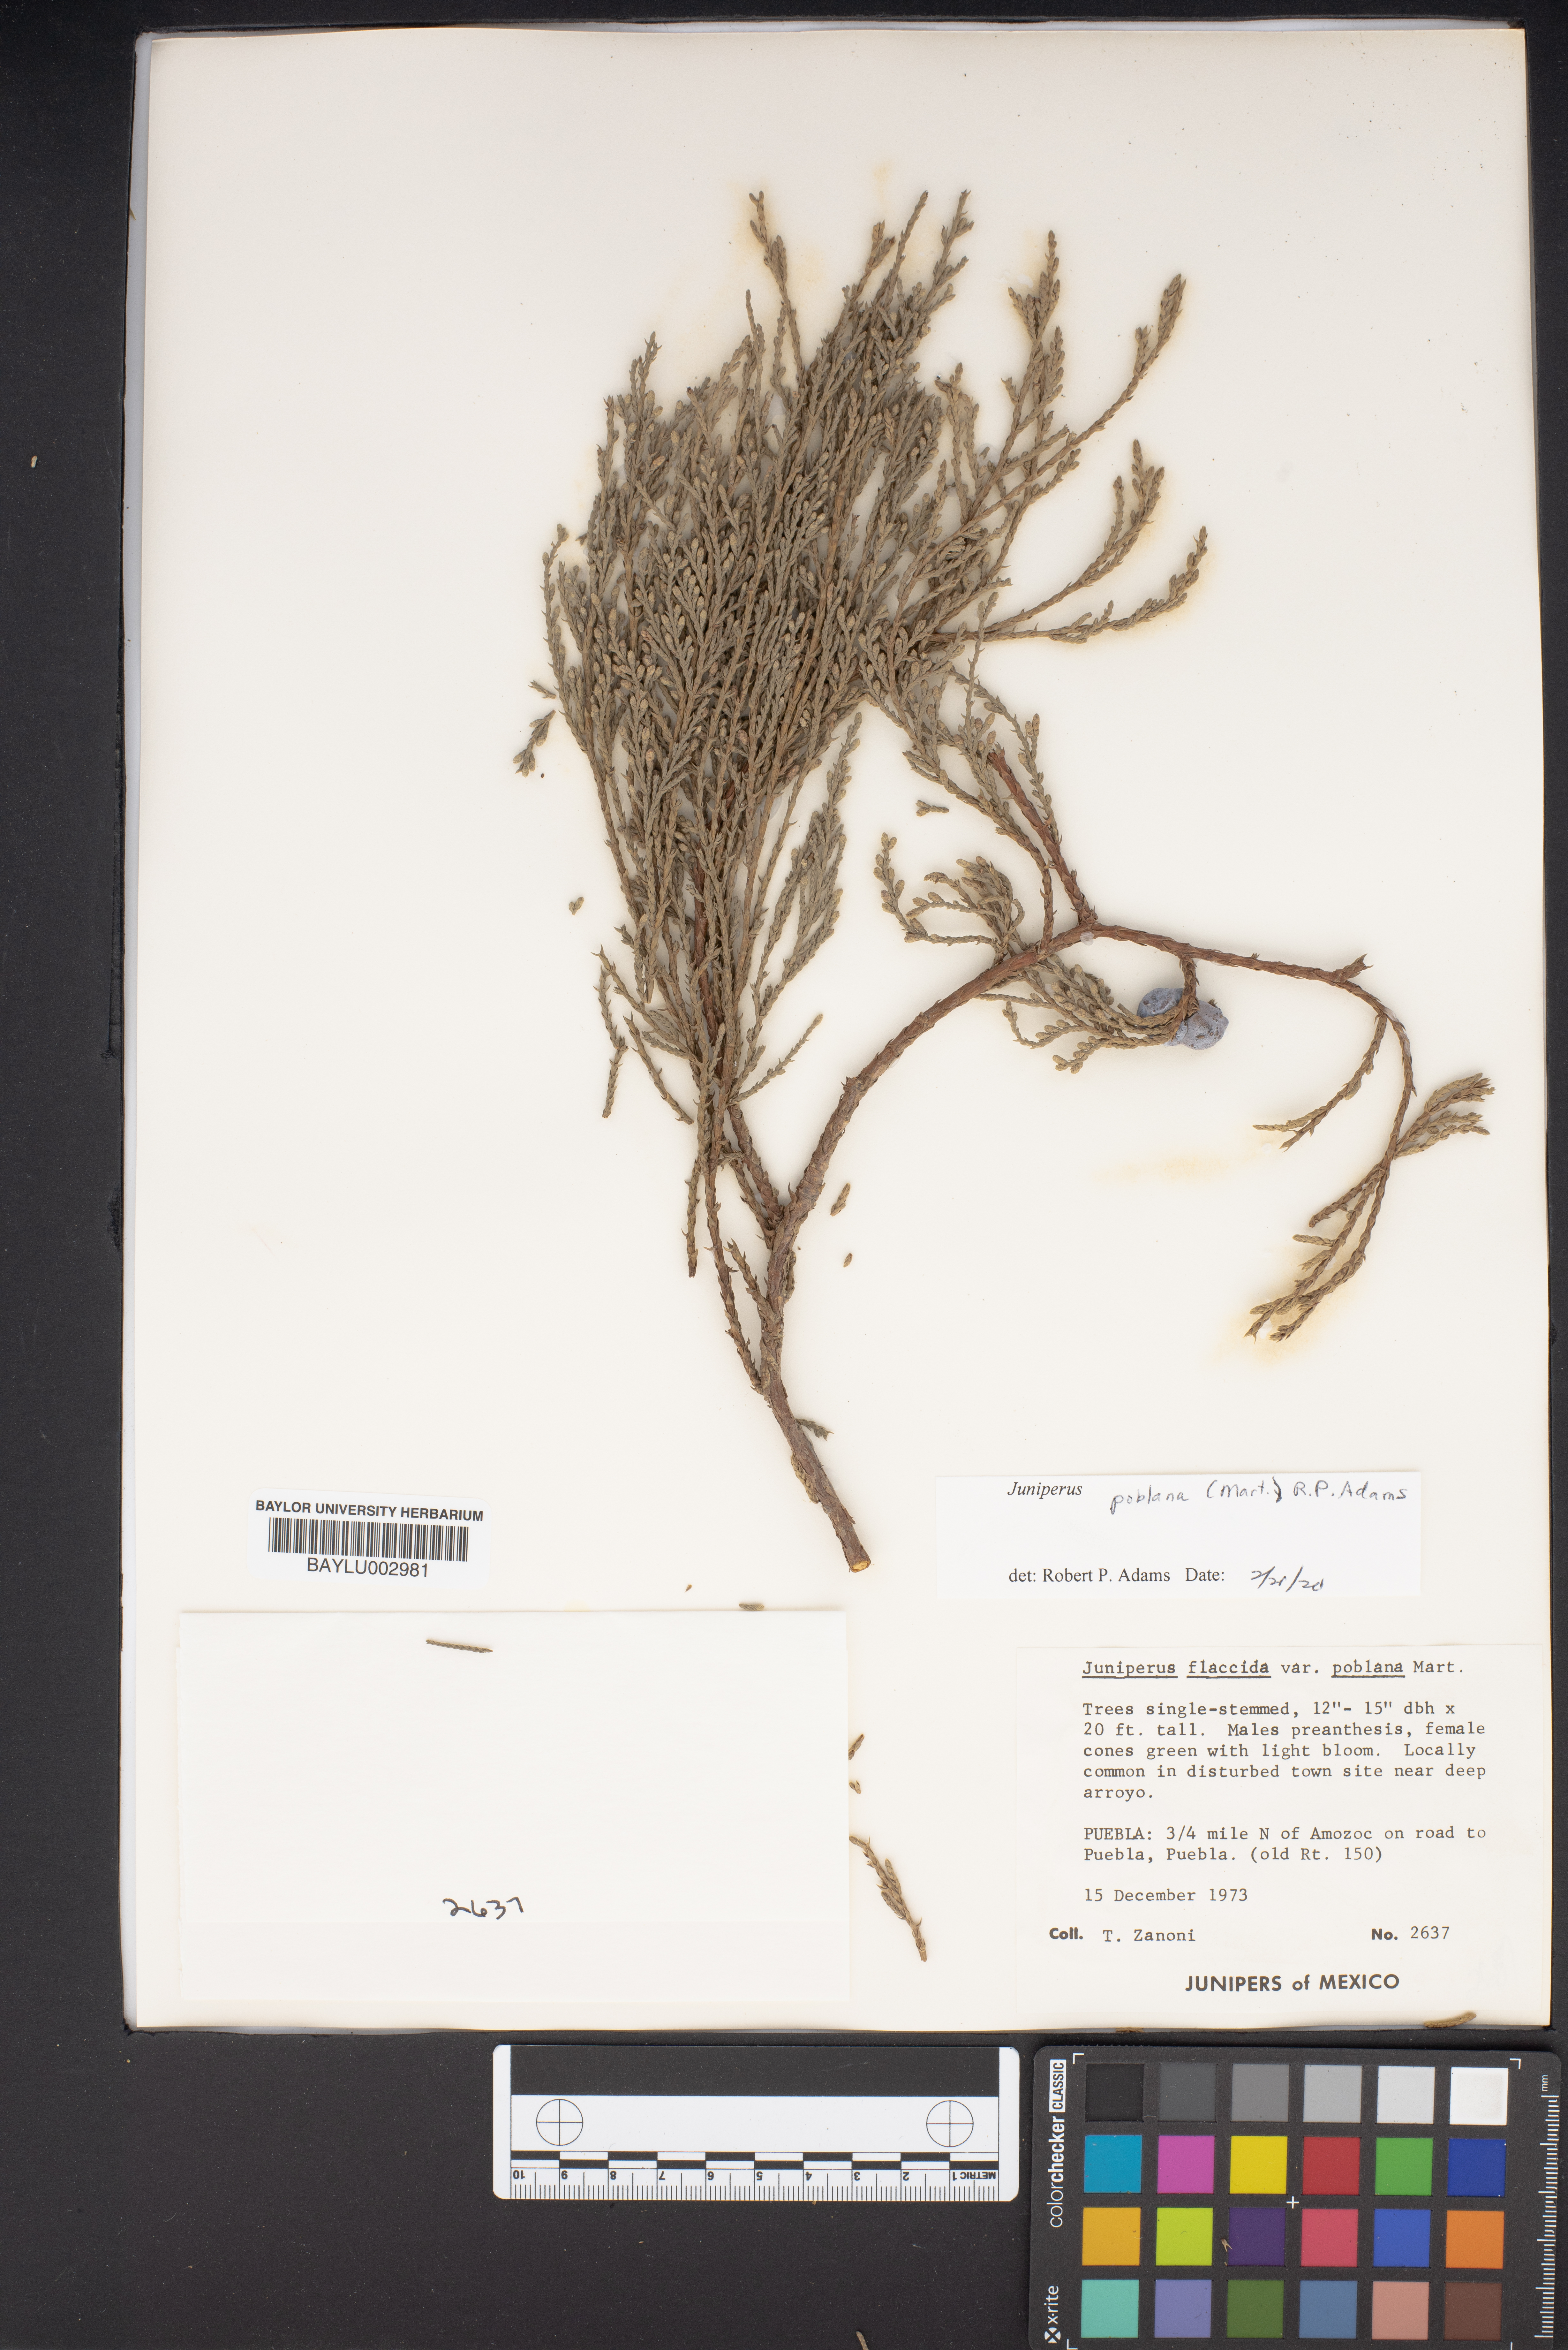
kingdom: Plantae
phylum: Tracheophyta
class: Pinopsida
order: Pinales
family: Cupressaceae
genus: Juniperus
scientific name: Juniperus flaccida
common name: Drooping juniper
